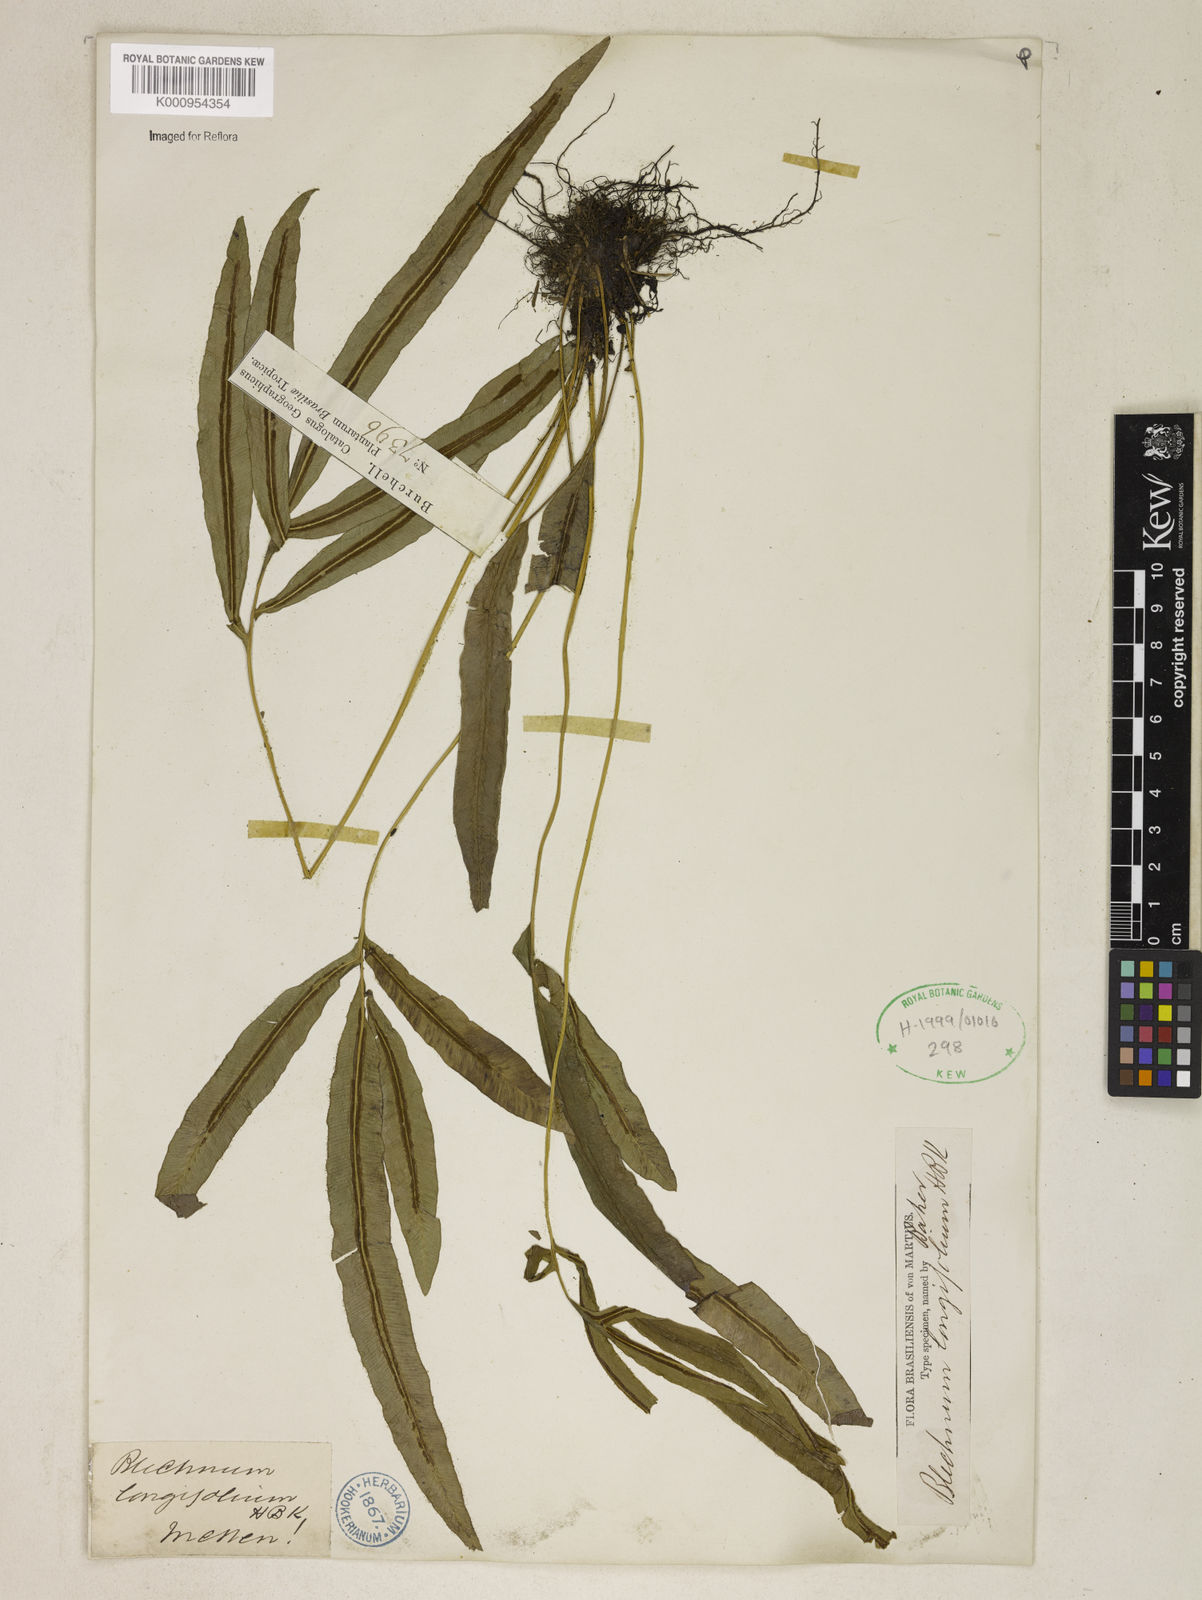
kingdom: Plantae
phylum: Tracheophyta
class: Polypodiopsida
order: Polypodiales
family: Blechnaceae
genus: Blechnum
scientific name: Blechnum gracile
